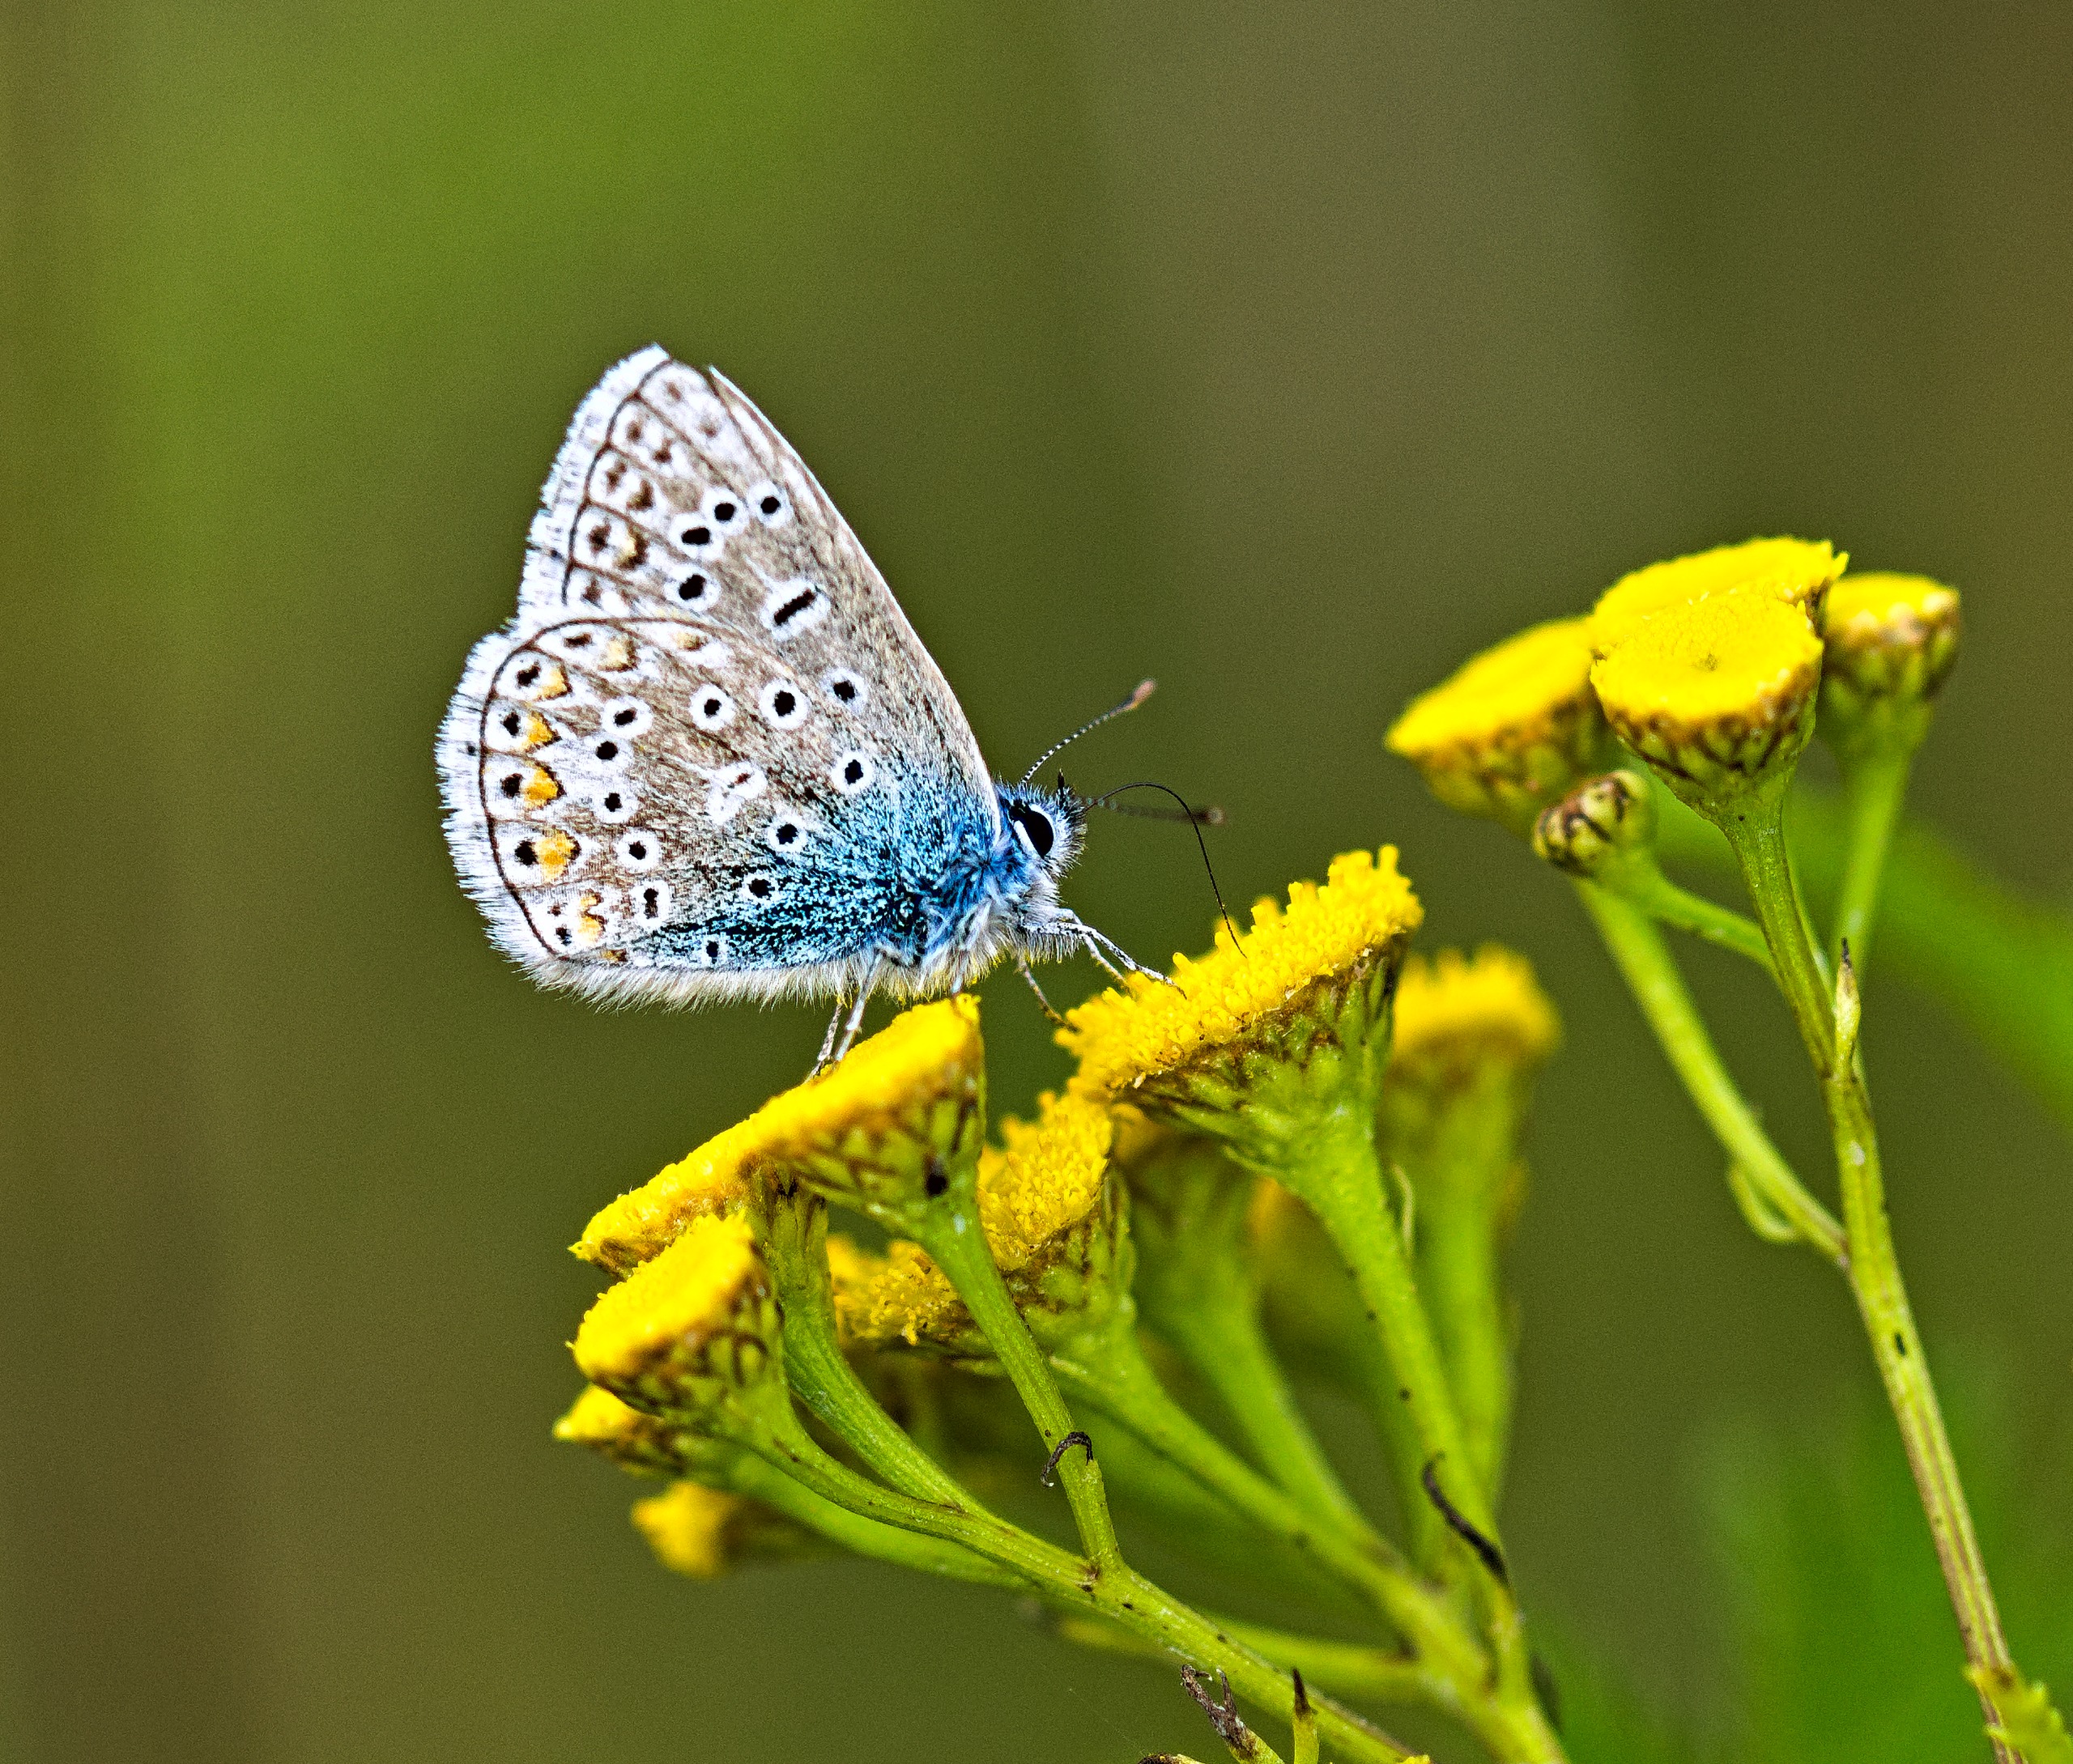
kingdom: Animalia
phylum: Arthropoda
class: Insecta
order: Lepidoptera
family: Lycaenidae
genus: Polyommatus
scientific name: Polyommatus icarus
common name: Almindelig blåfugl
